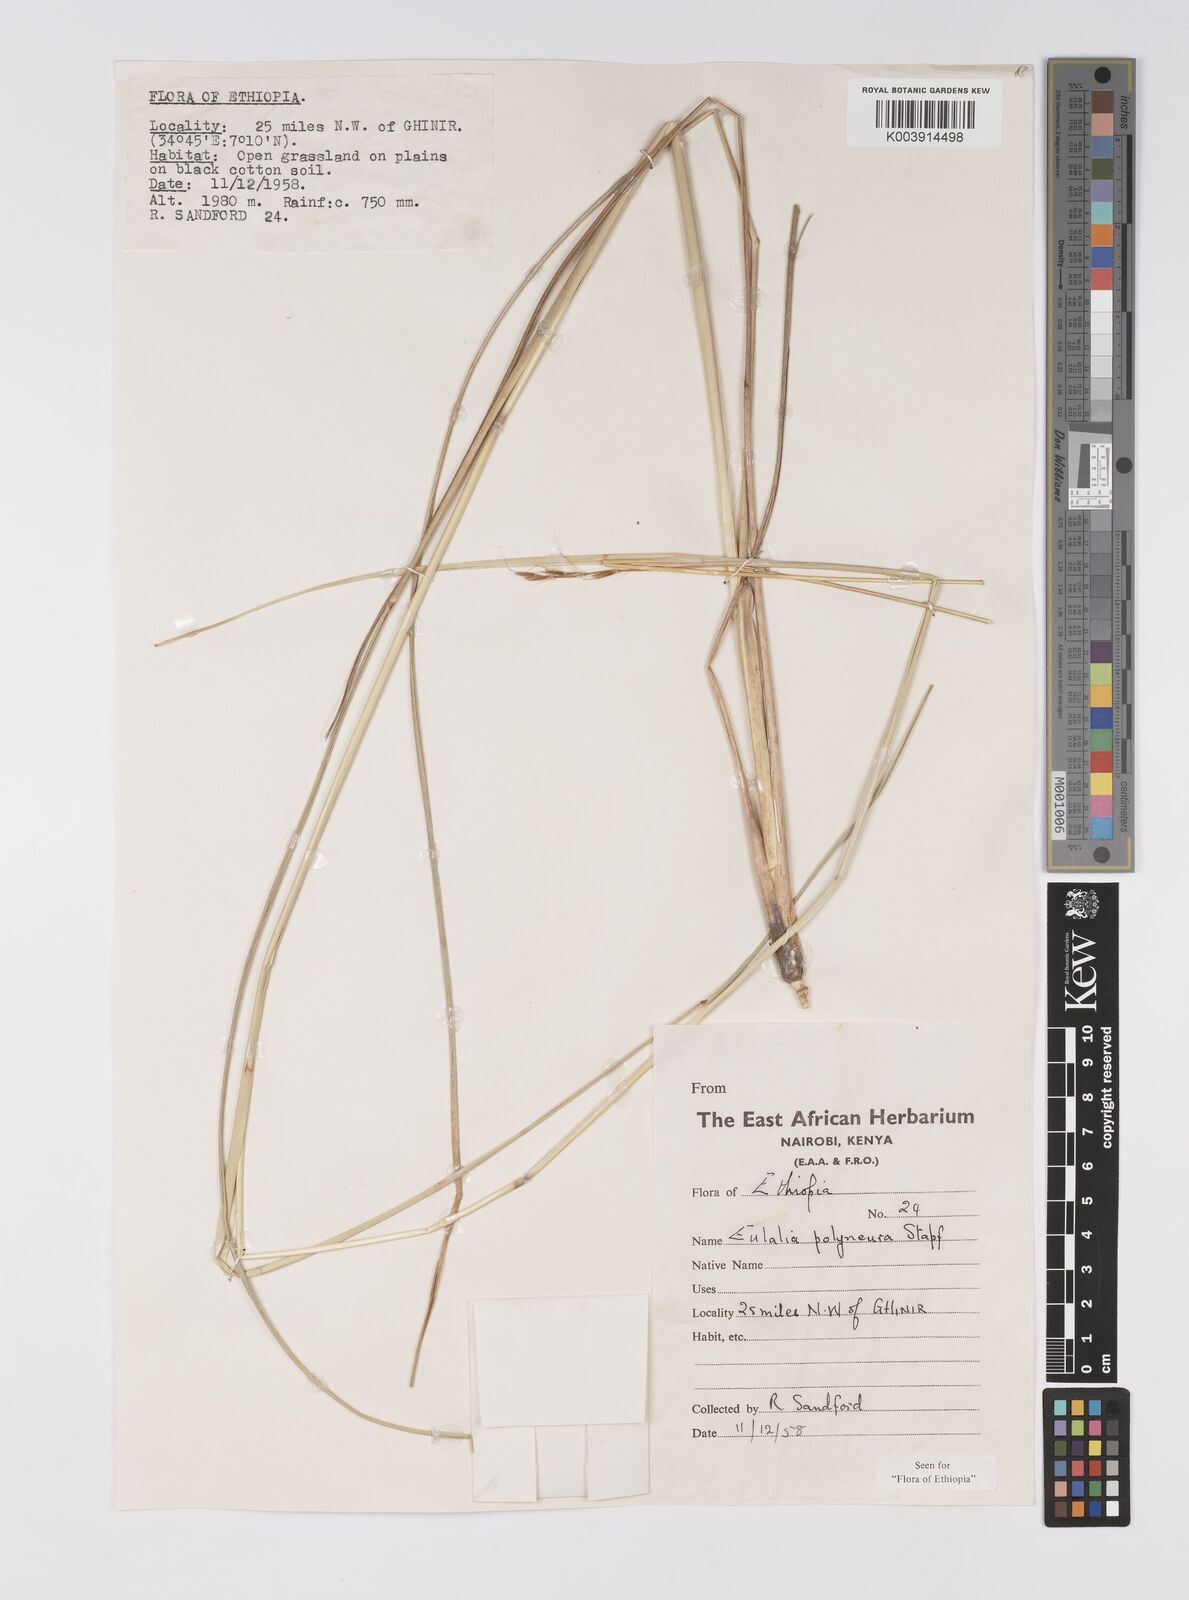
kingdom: Plantae
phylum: Tracheophyta
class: Liliopsida
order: Poales
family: Poaceae
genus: Eulalia
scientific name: Eulalia polyneura
